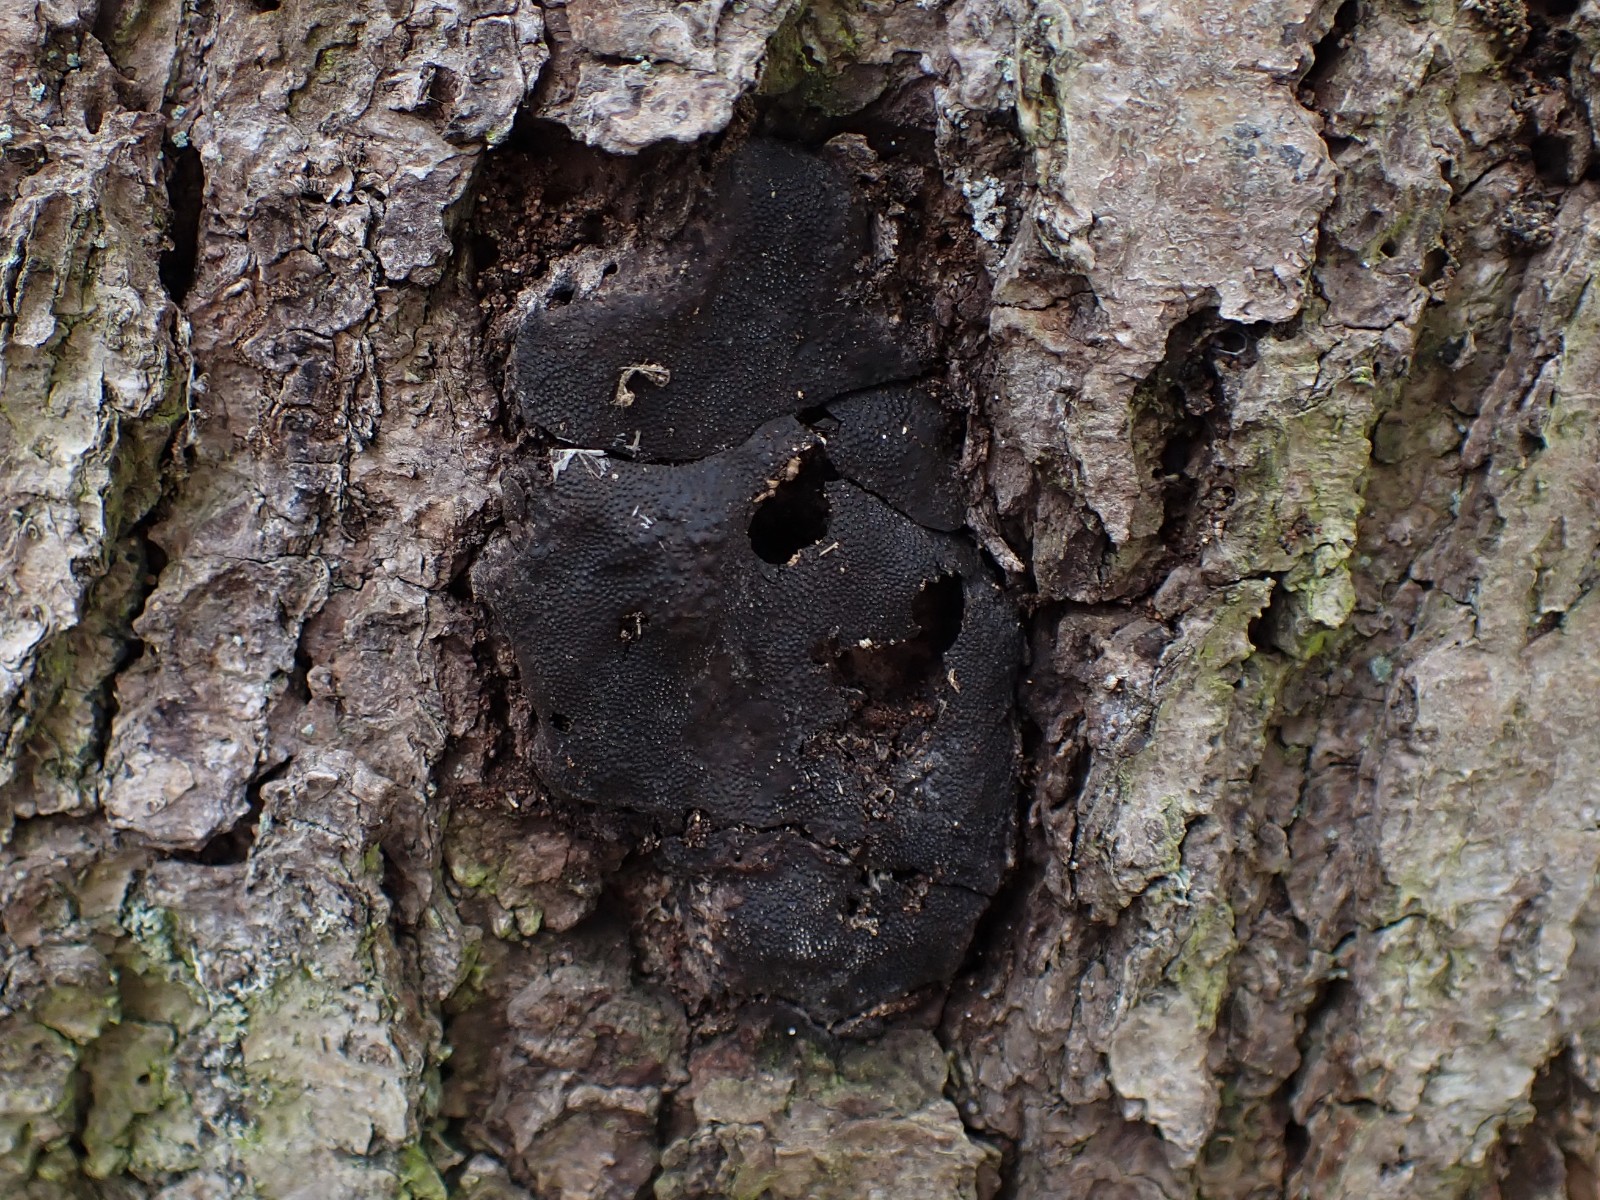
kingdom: Fungi
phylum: Ascomycota
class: Sordariomycetes
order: Boliniales
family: Boliniaceae
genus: Camarops
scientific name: Camarops polysperma
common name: elle-kulsnegl
